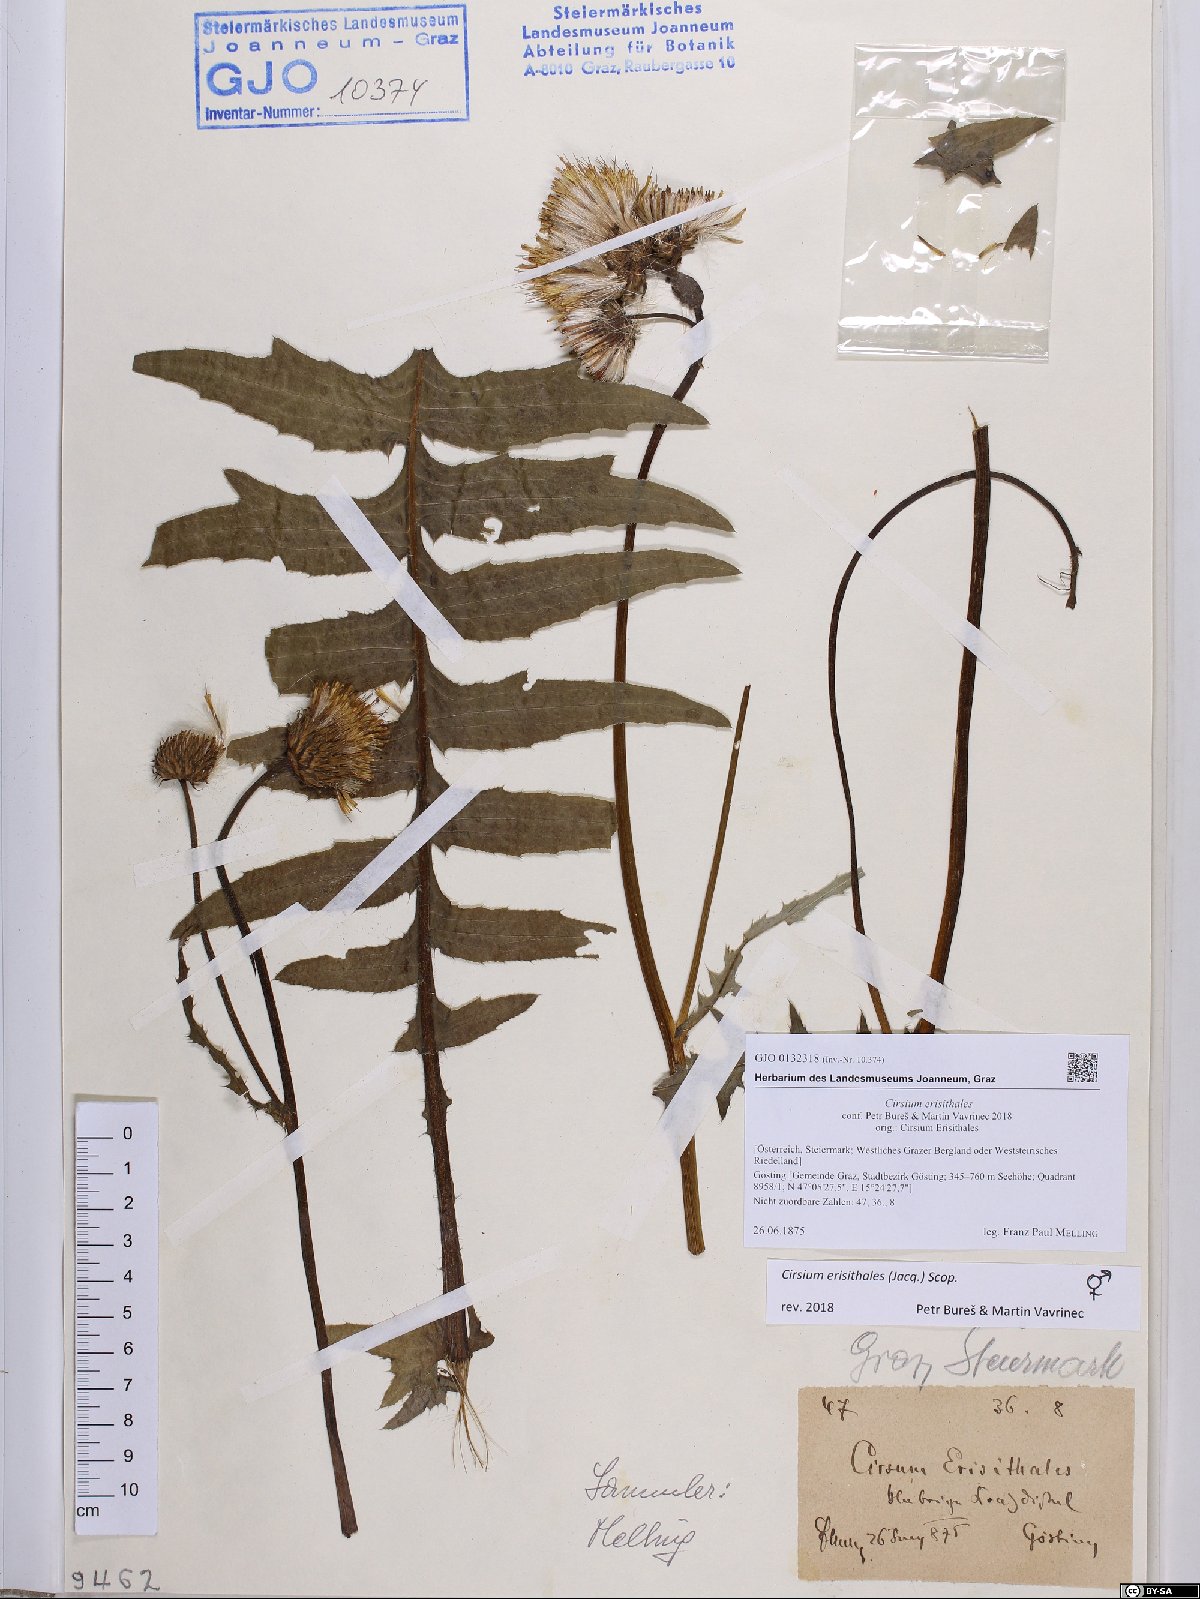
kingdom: Plantae
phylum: Tracheophyta
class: Magnoliopsida
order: Asterales
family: Asteraceae
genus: Cirsium
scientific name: Cirsium erisithales
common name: Yellow thistle
